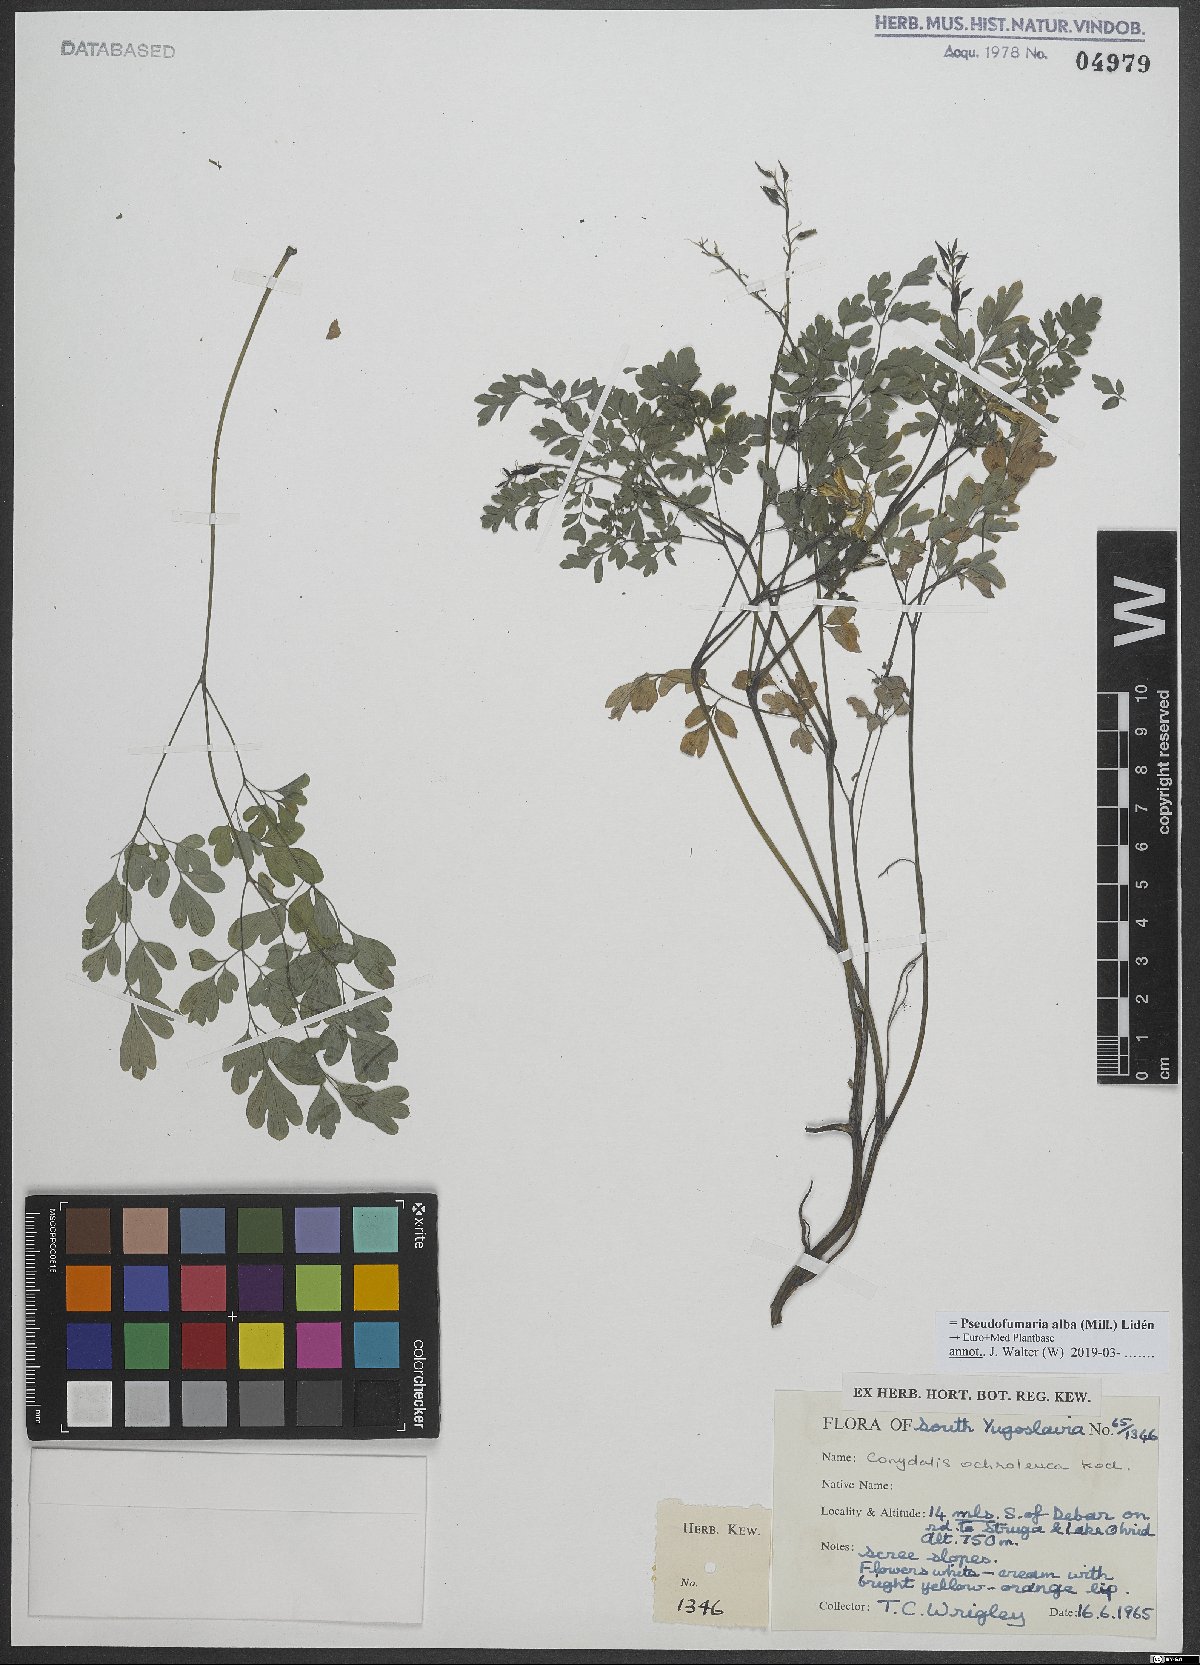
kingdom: Plantae
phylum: Tracheophyta
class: Magnoliopsida
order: Ranunculales
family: Papaveraceae
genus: Pseudofumaria
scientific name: Pseudofumaria alba
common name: Pale corydalis
